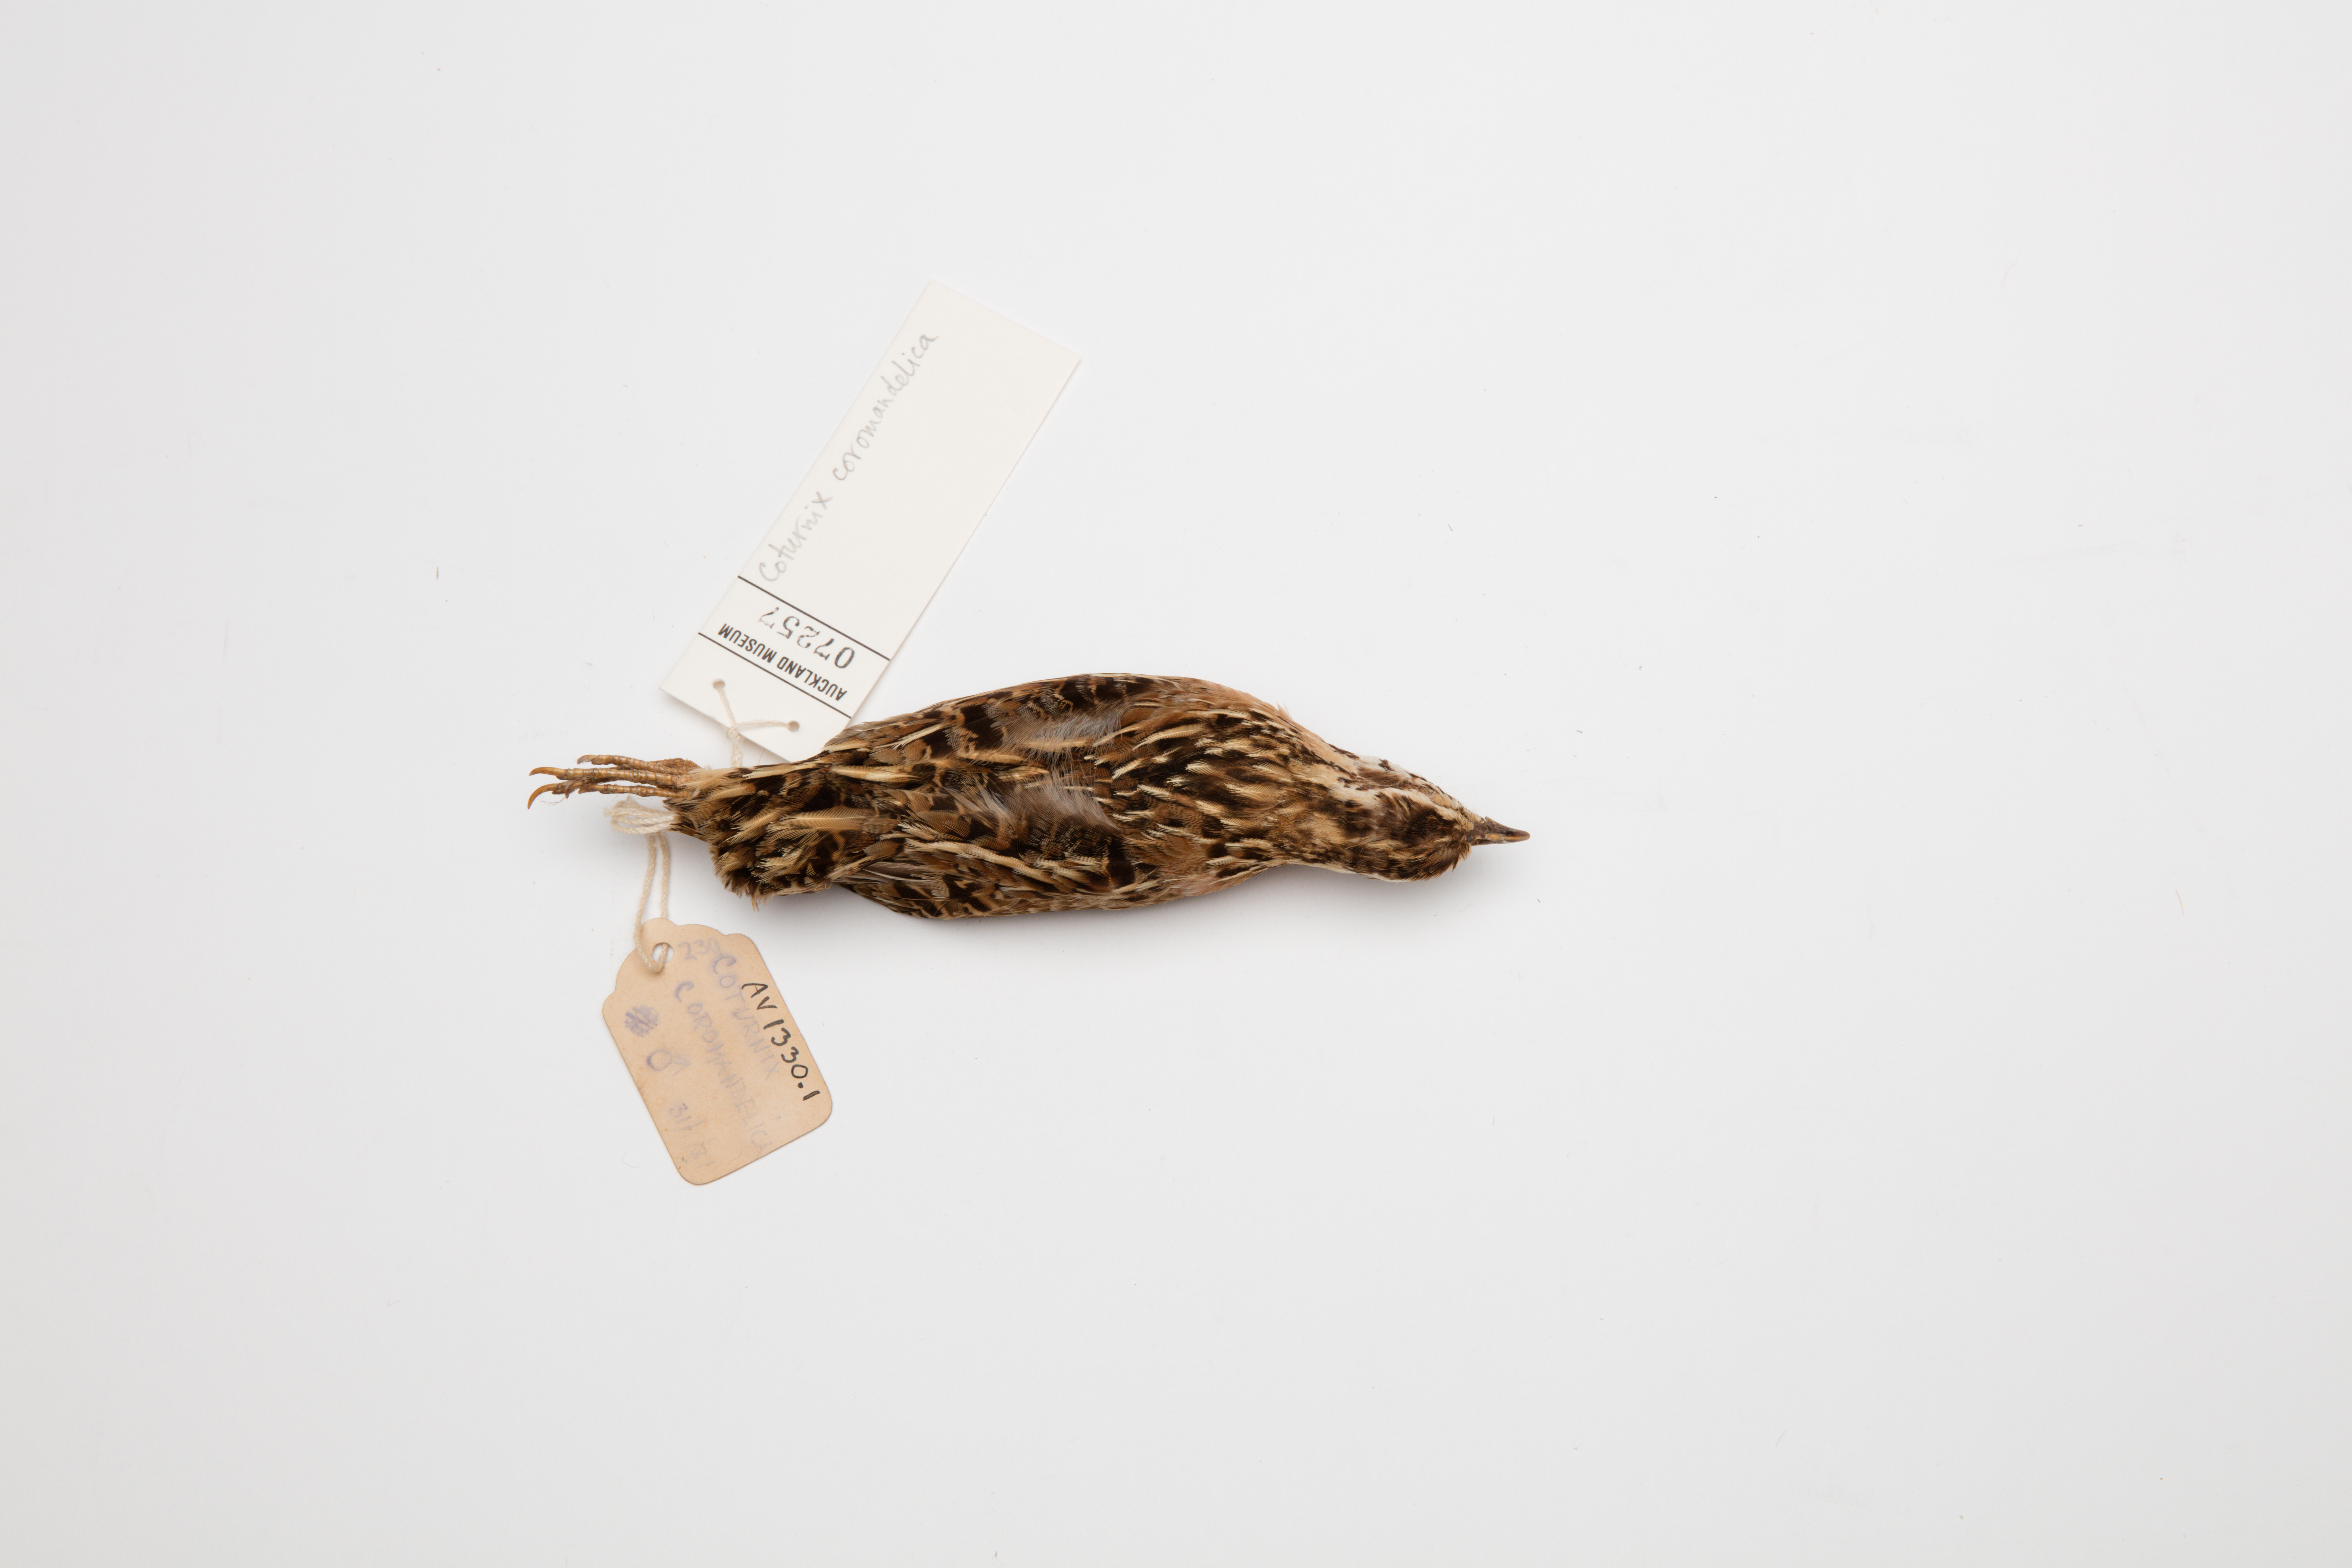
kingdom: Animalia
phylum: Chordata
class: Aves
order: Galliformes
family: Phasianidae
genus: Coturnix
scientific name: Coturnix coromandelica
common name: Rain quail
